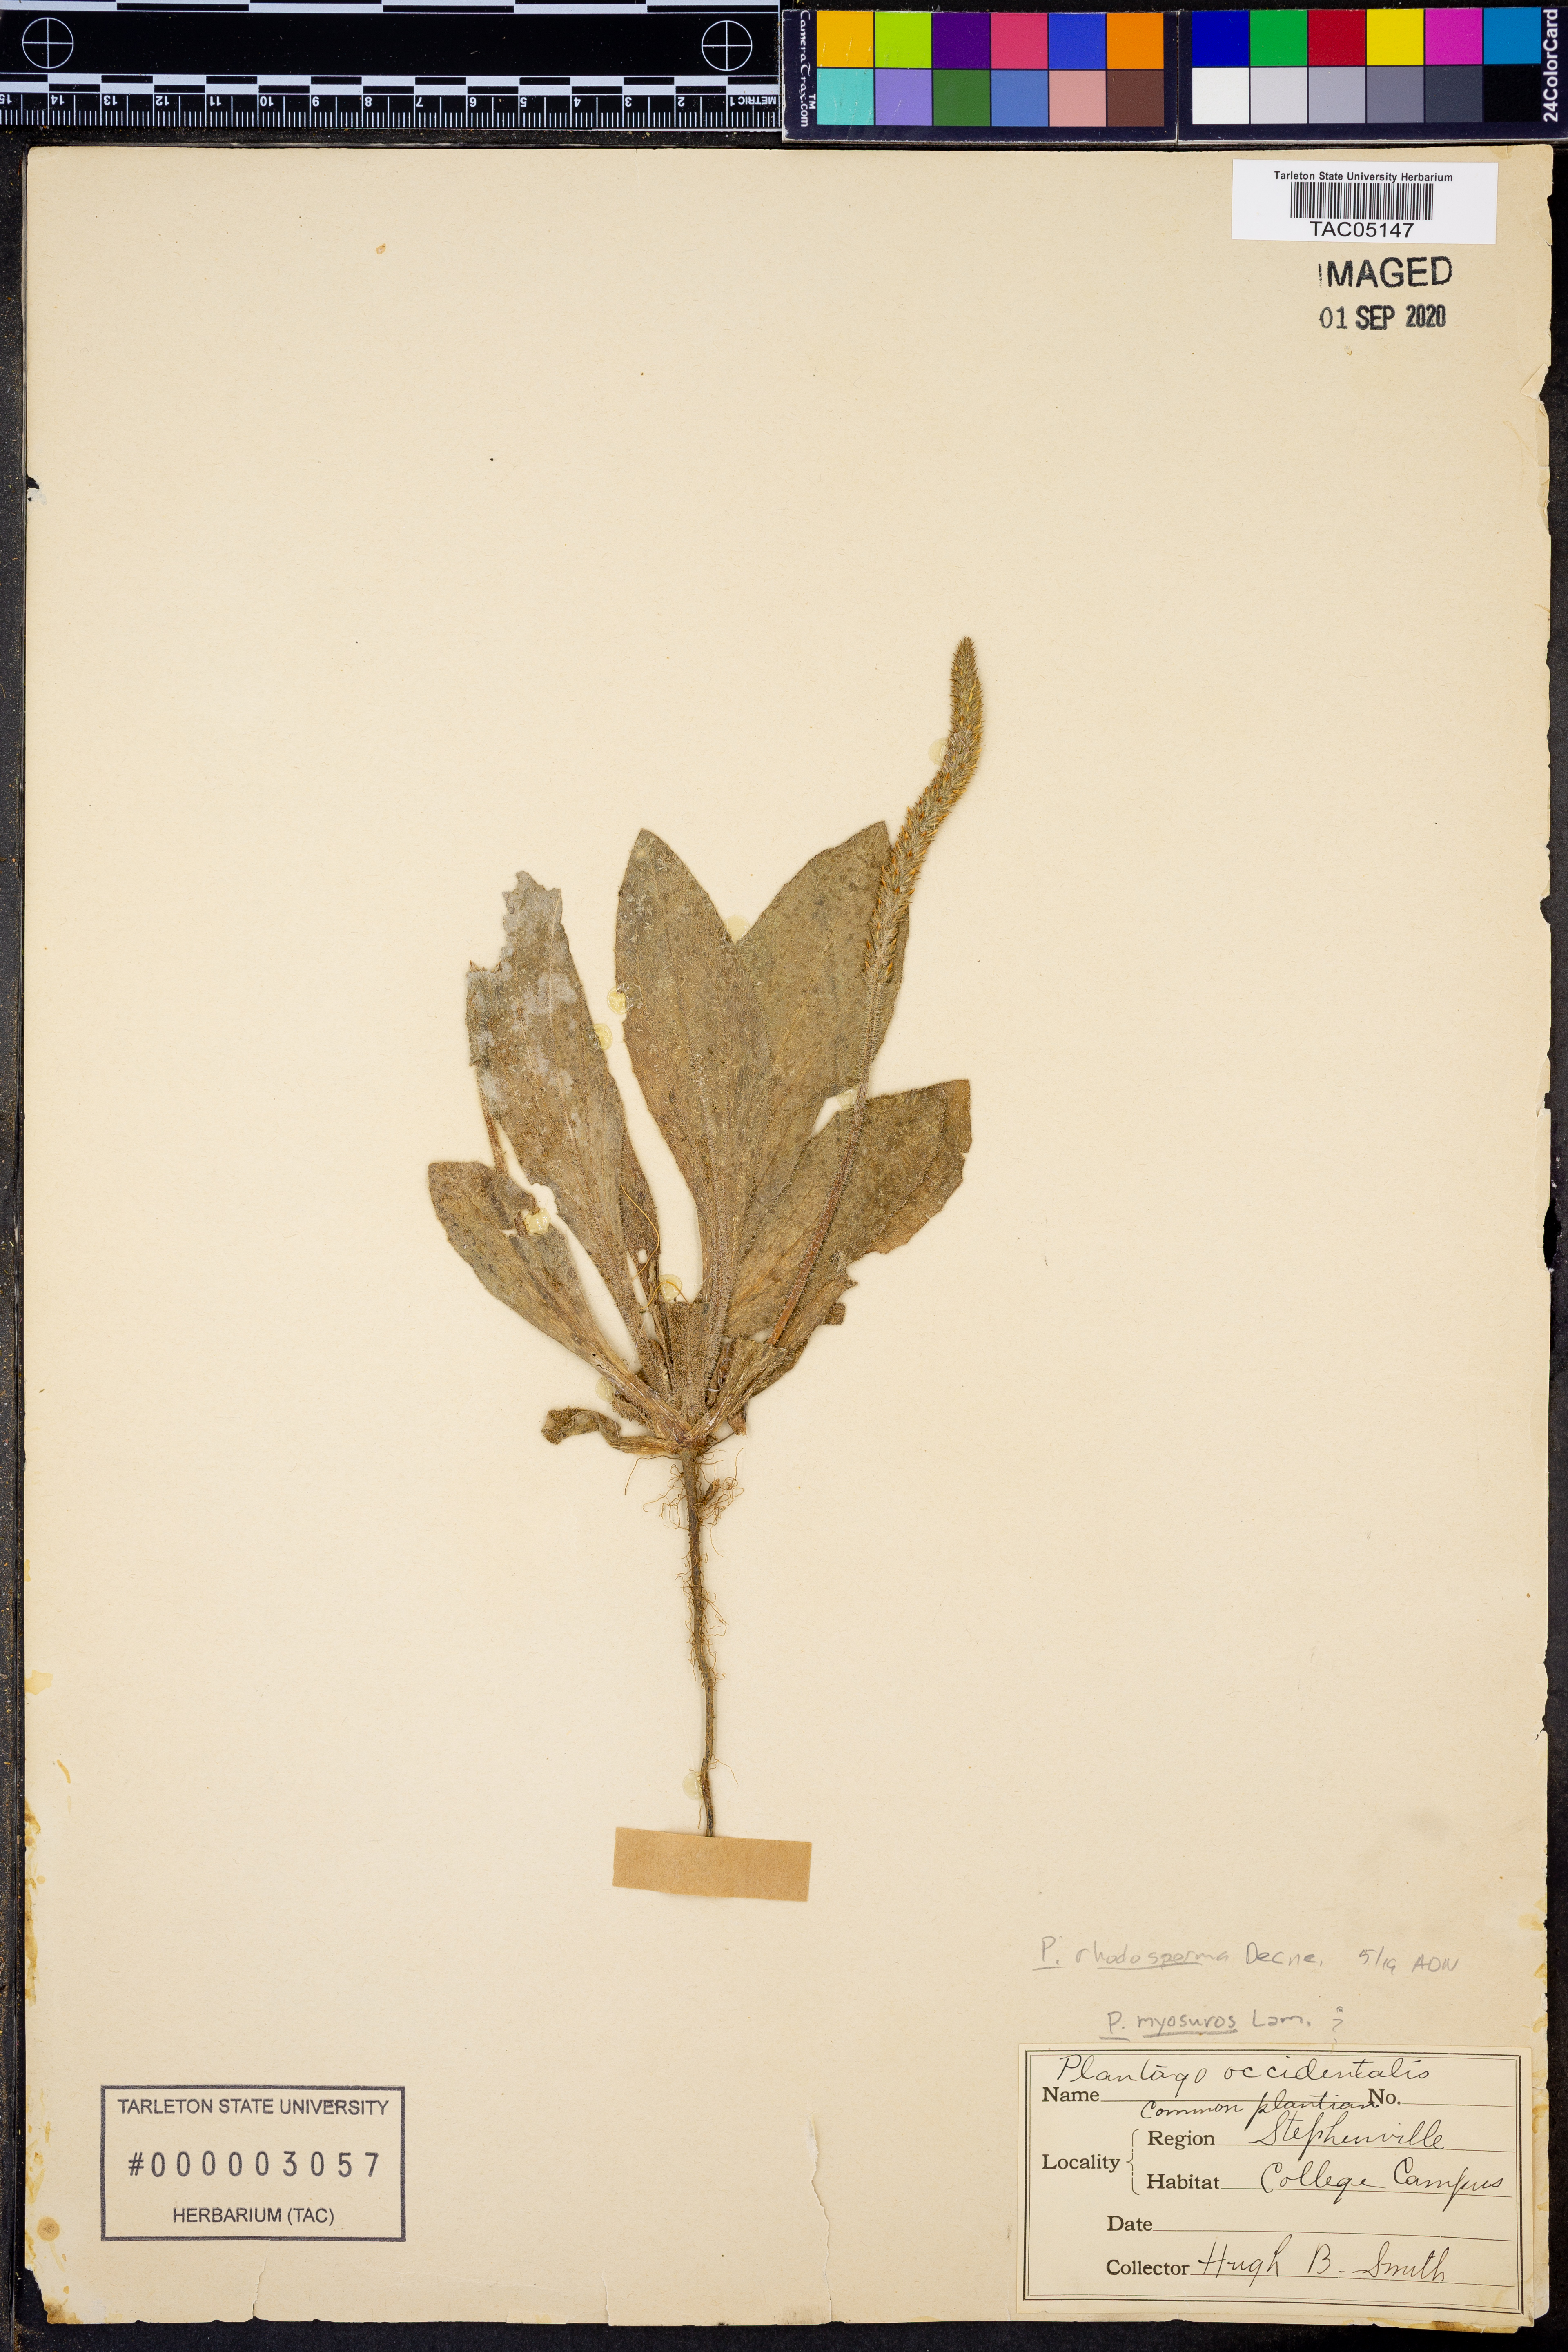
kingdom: Plantae
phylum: Tracheophyta
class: Magnoliopsida
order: Lamiales
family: Plantaginaceae
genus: Plantago
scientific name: Plantago rhodosperma
